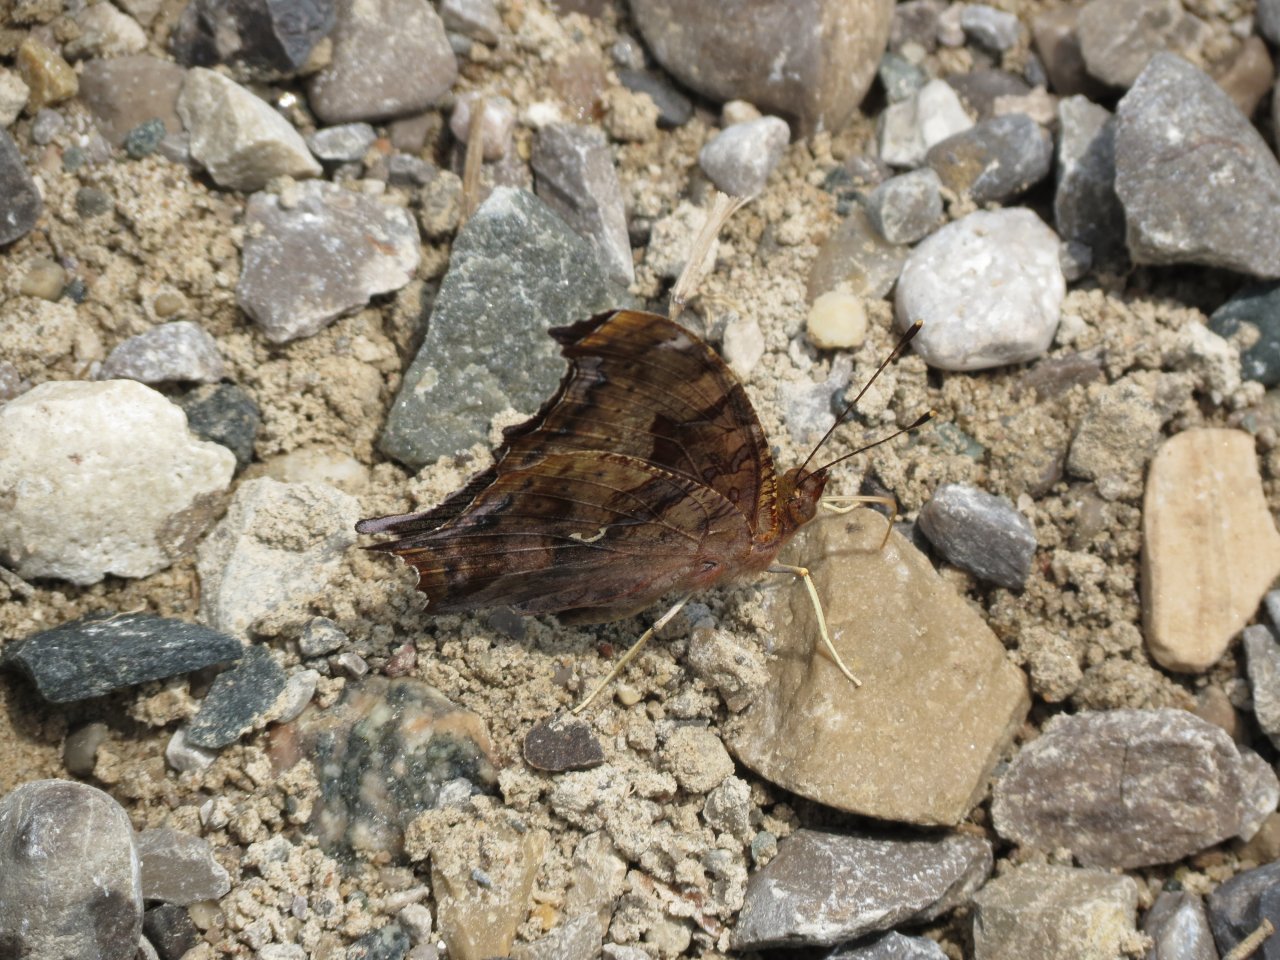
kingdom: Animalia
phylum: Arthropoda
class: Insecta
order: Lepidoptera
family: Nymphalidae
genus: Polygonia
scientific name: Polygonia comma
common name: Eastern Comma
